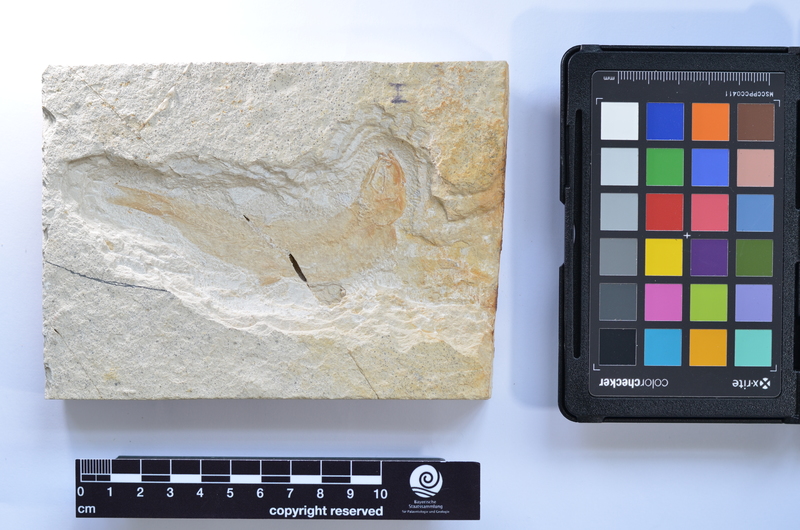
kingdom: Animalia
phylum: Chordata
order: Elopiformes
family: Anaethalionidae
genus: Anaethalion
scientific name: Anaethalion knorri
